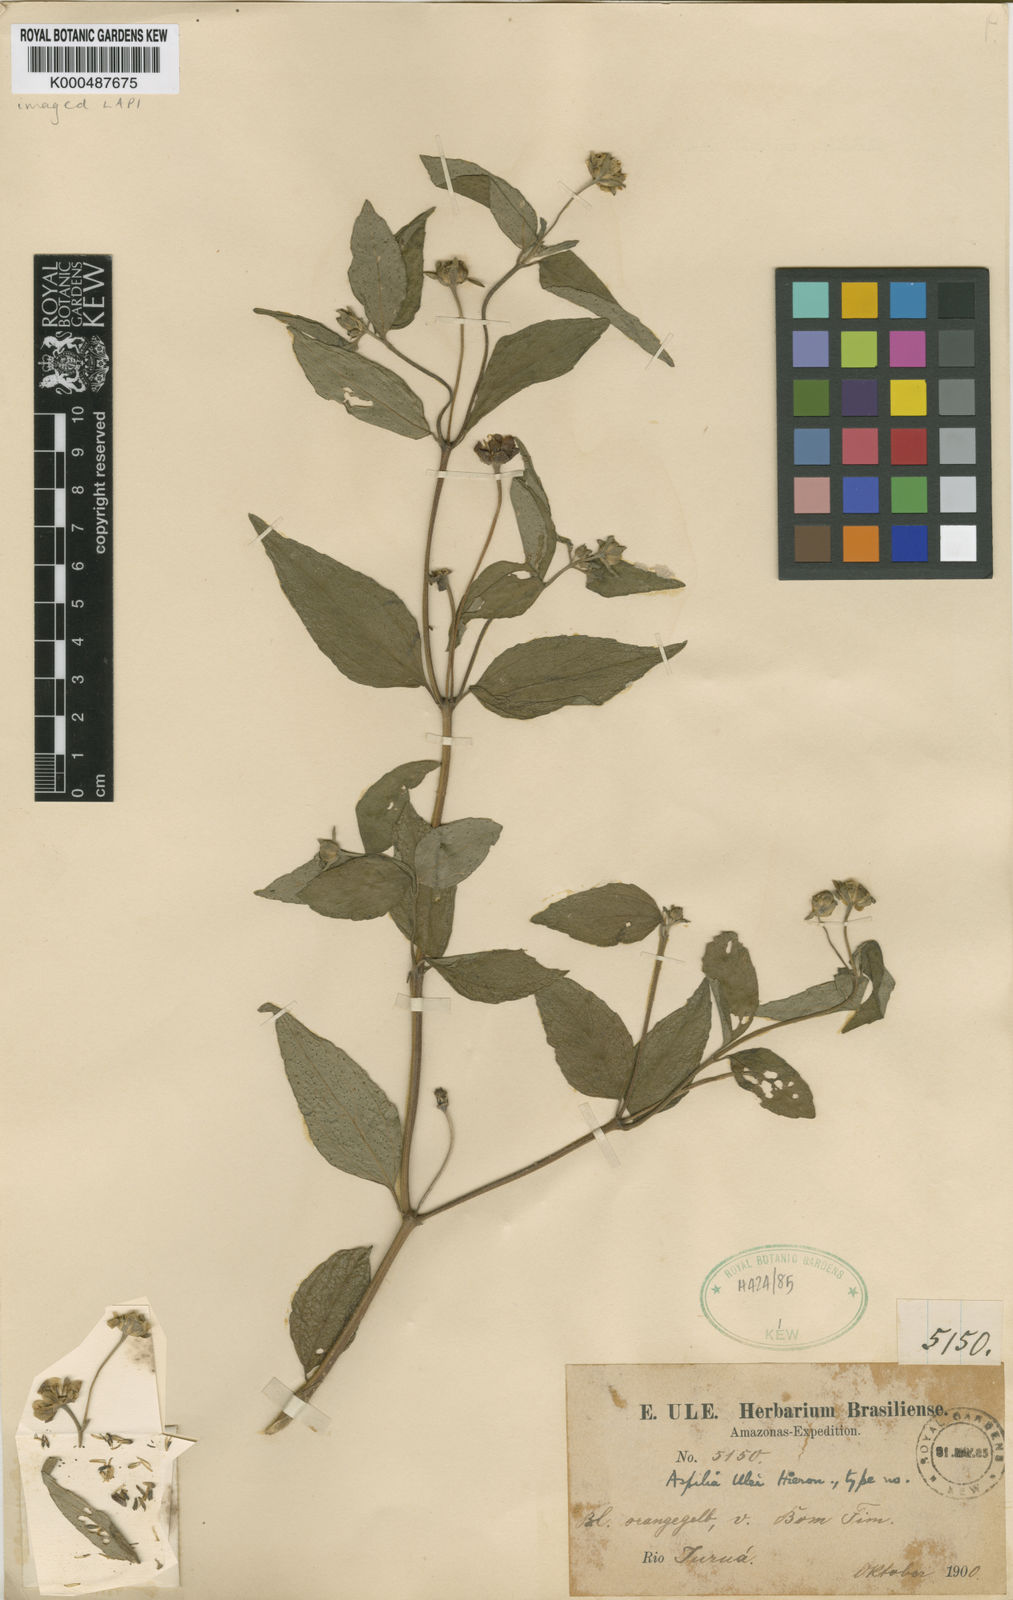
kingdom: Plantae
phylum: Tracheophyta
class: Magnoliopsida
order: Asterales
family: Asteraceae
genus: Elaphandra
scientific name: Elaphandra ulei
